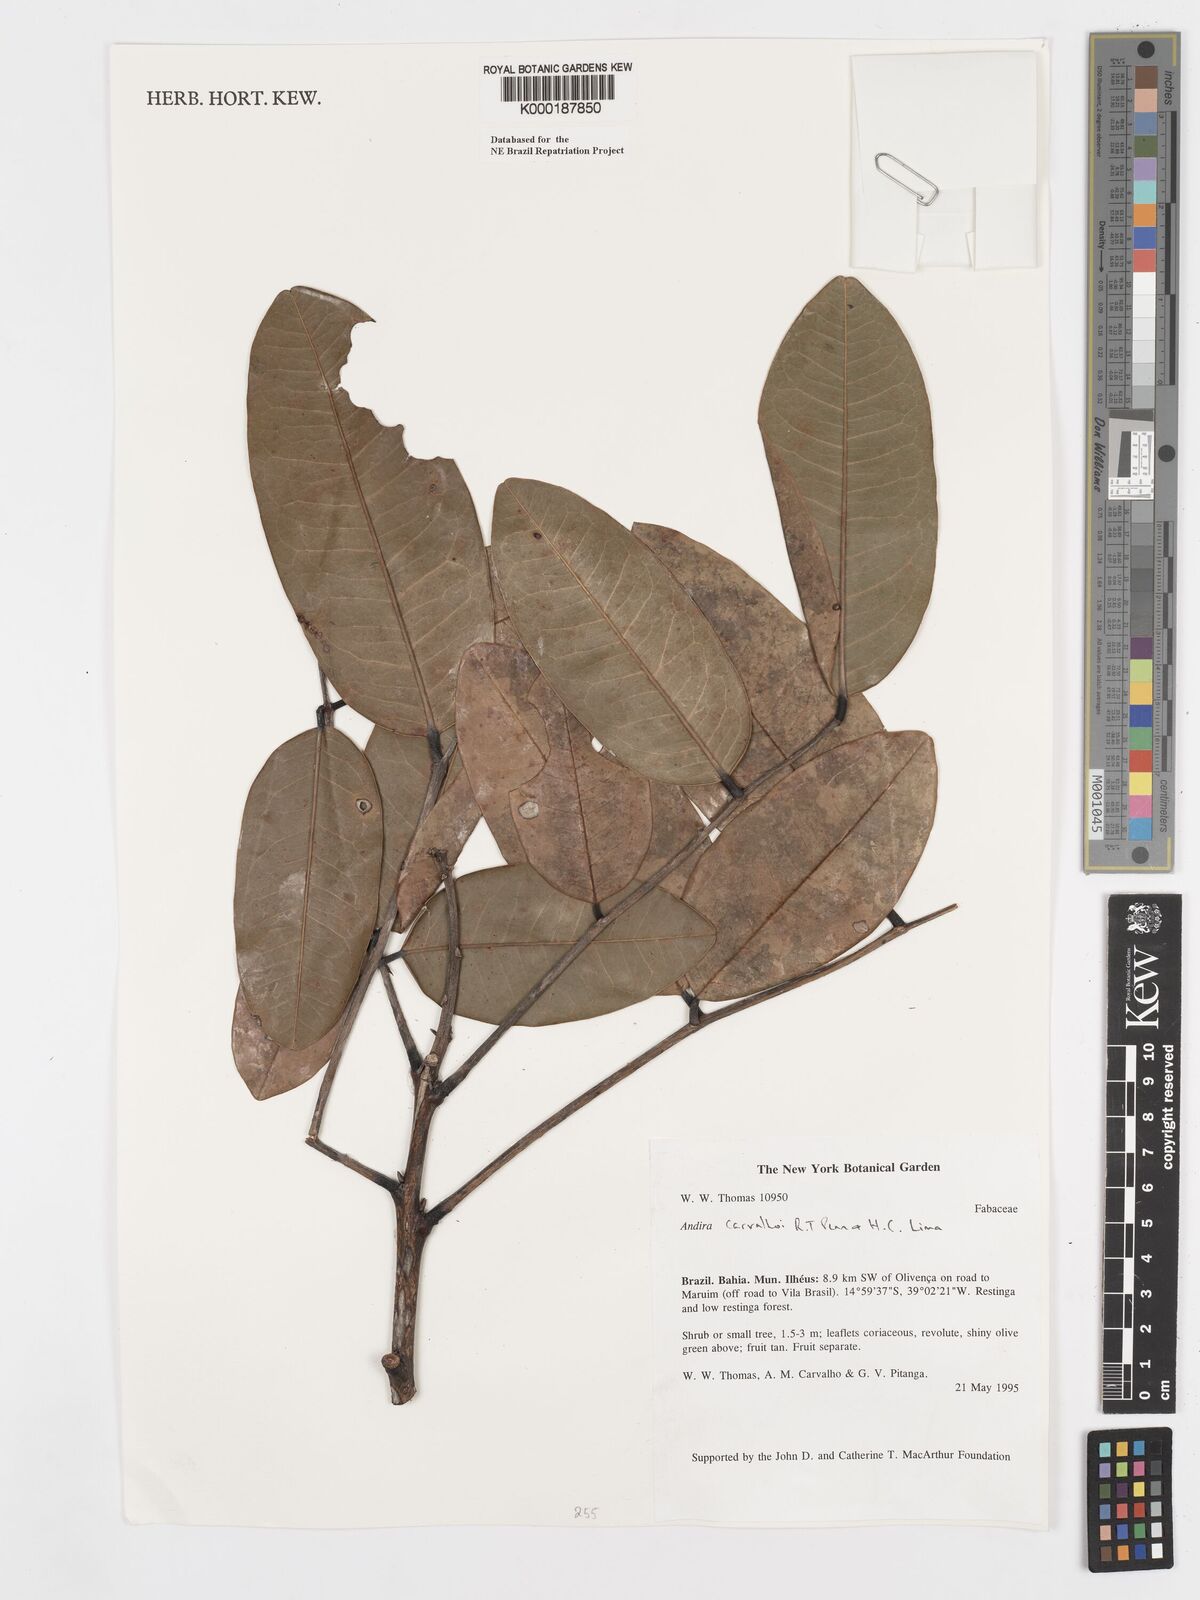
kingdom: Plantae
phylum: Tracheophyta
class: Magnoliopsida
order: Fabales
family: Fabaceae
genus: Andira
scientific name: Andira carvalhoi
